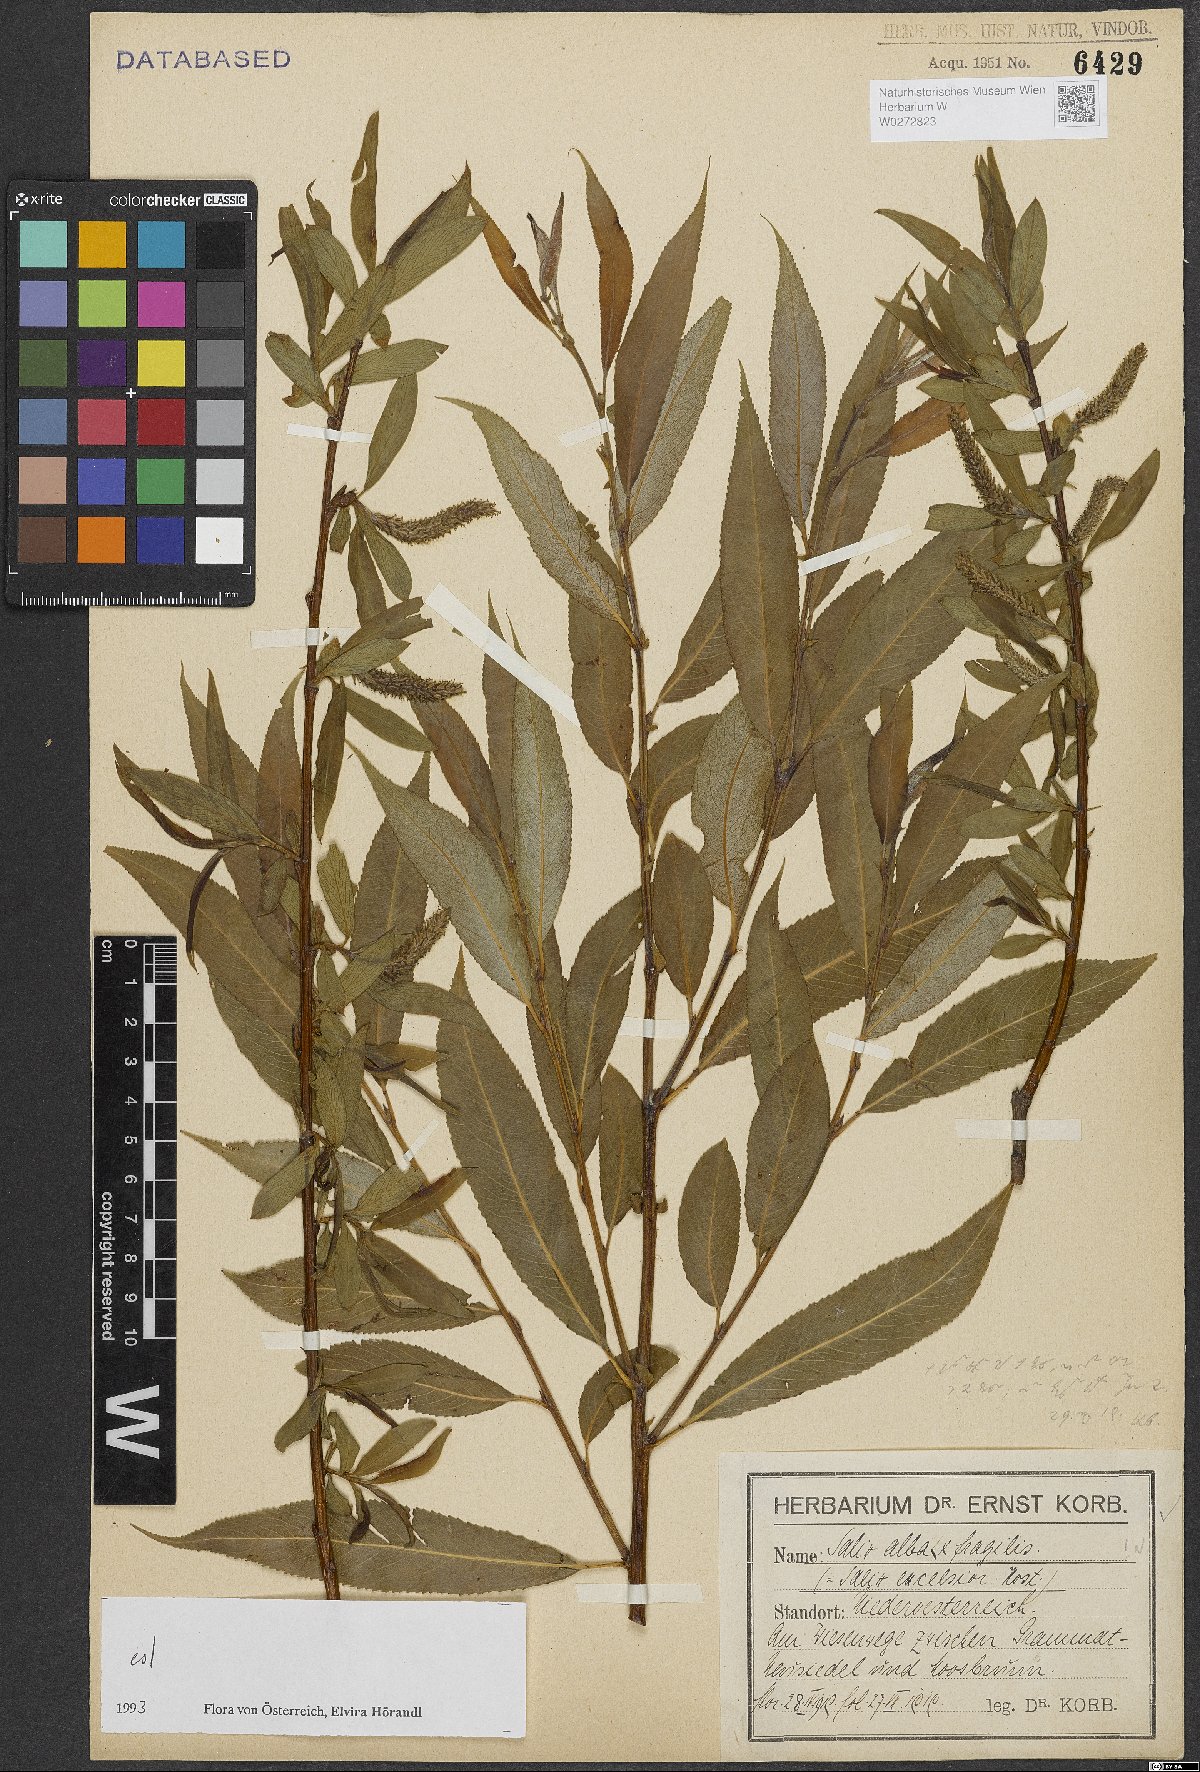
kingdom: Plantae
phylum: Tracheophyta
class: Magnoliopsida
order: Malpighiales
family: Salicaceae
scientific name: Salicaceae
